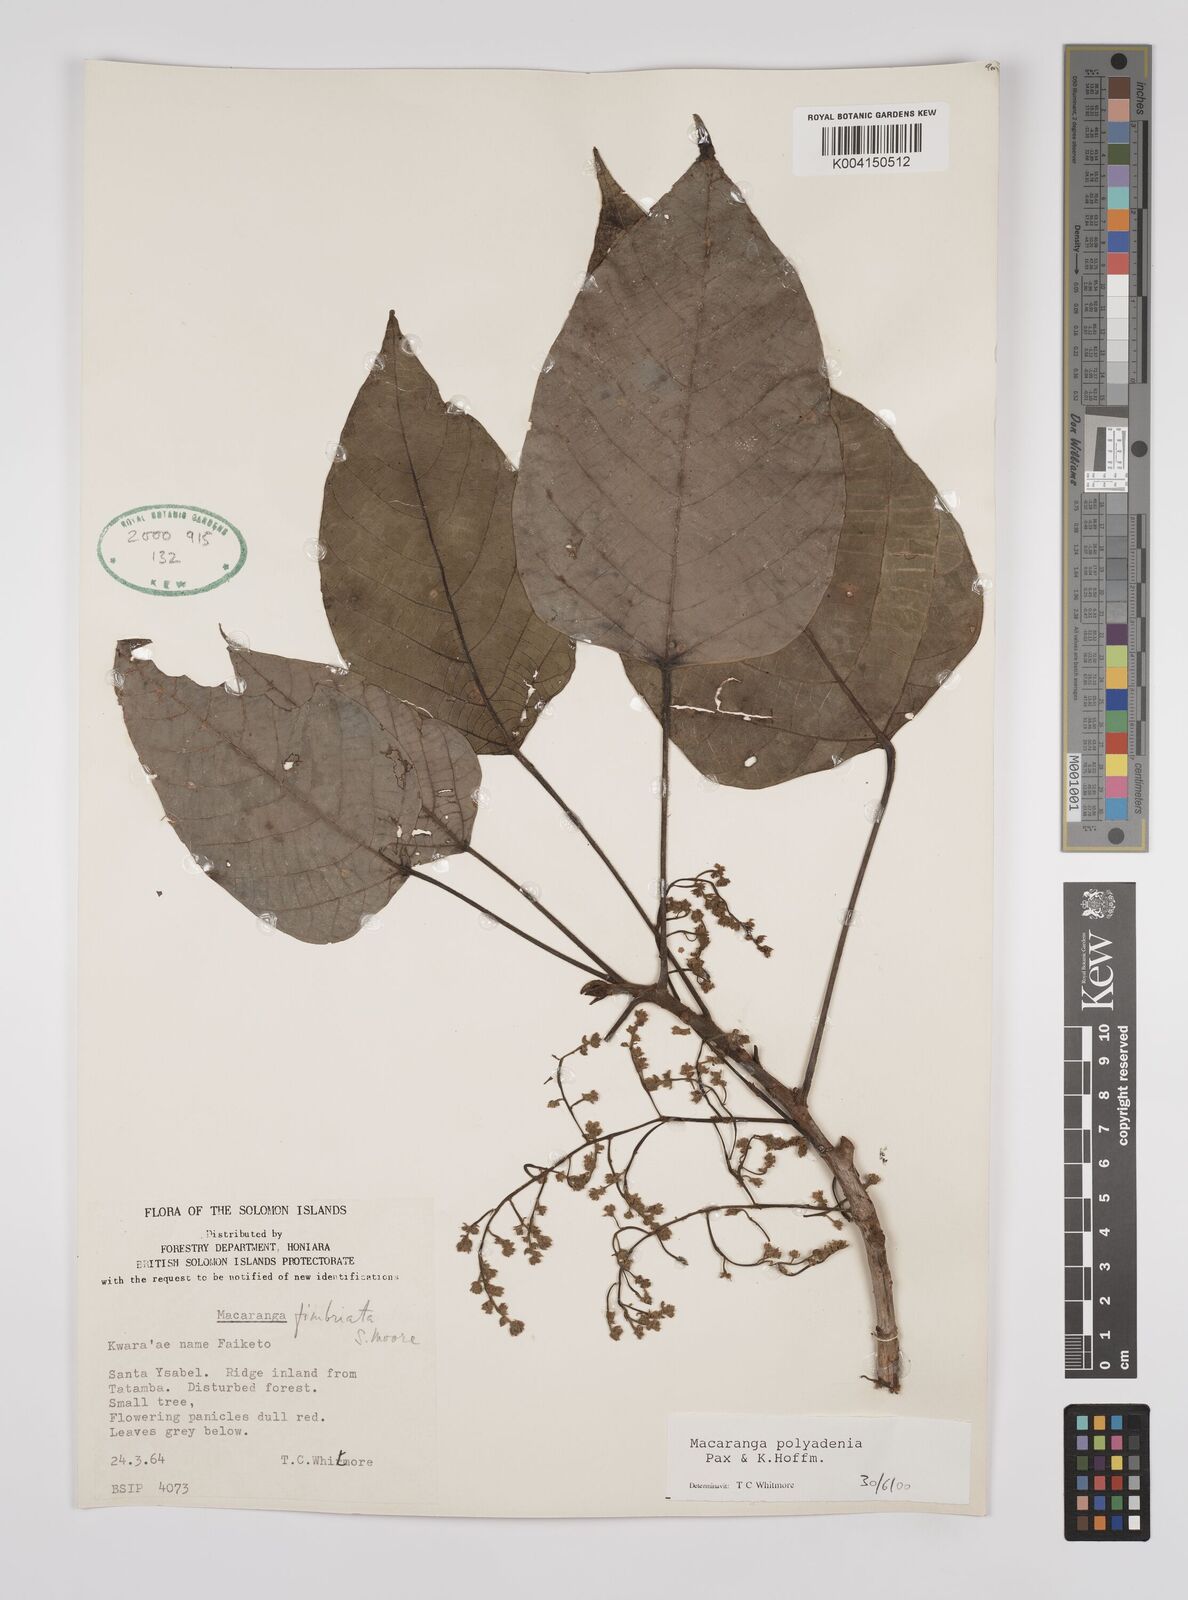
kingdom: Plantae
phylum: Tracheophyta
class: Magnoliopsida
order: Malpighiales
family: Euphorbiaceae
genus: Macaranga
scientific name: Macaranga polyadenia
